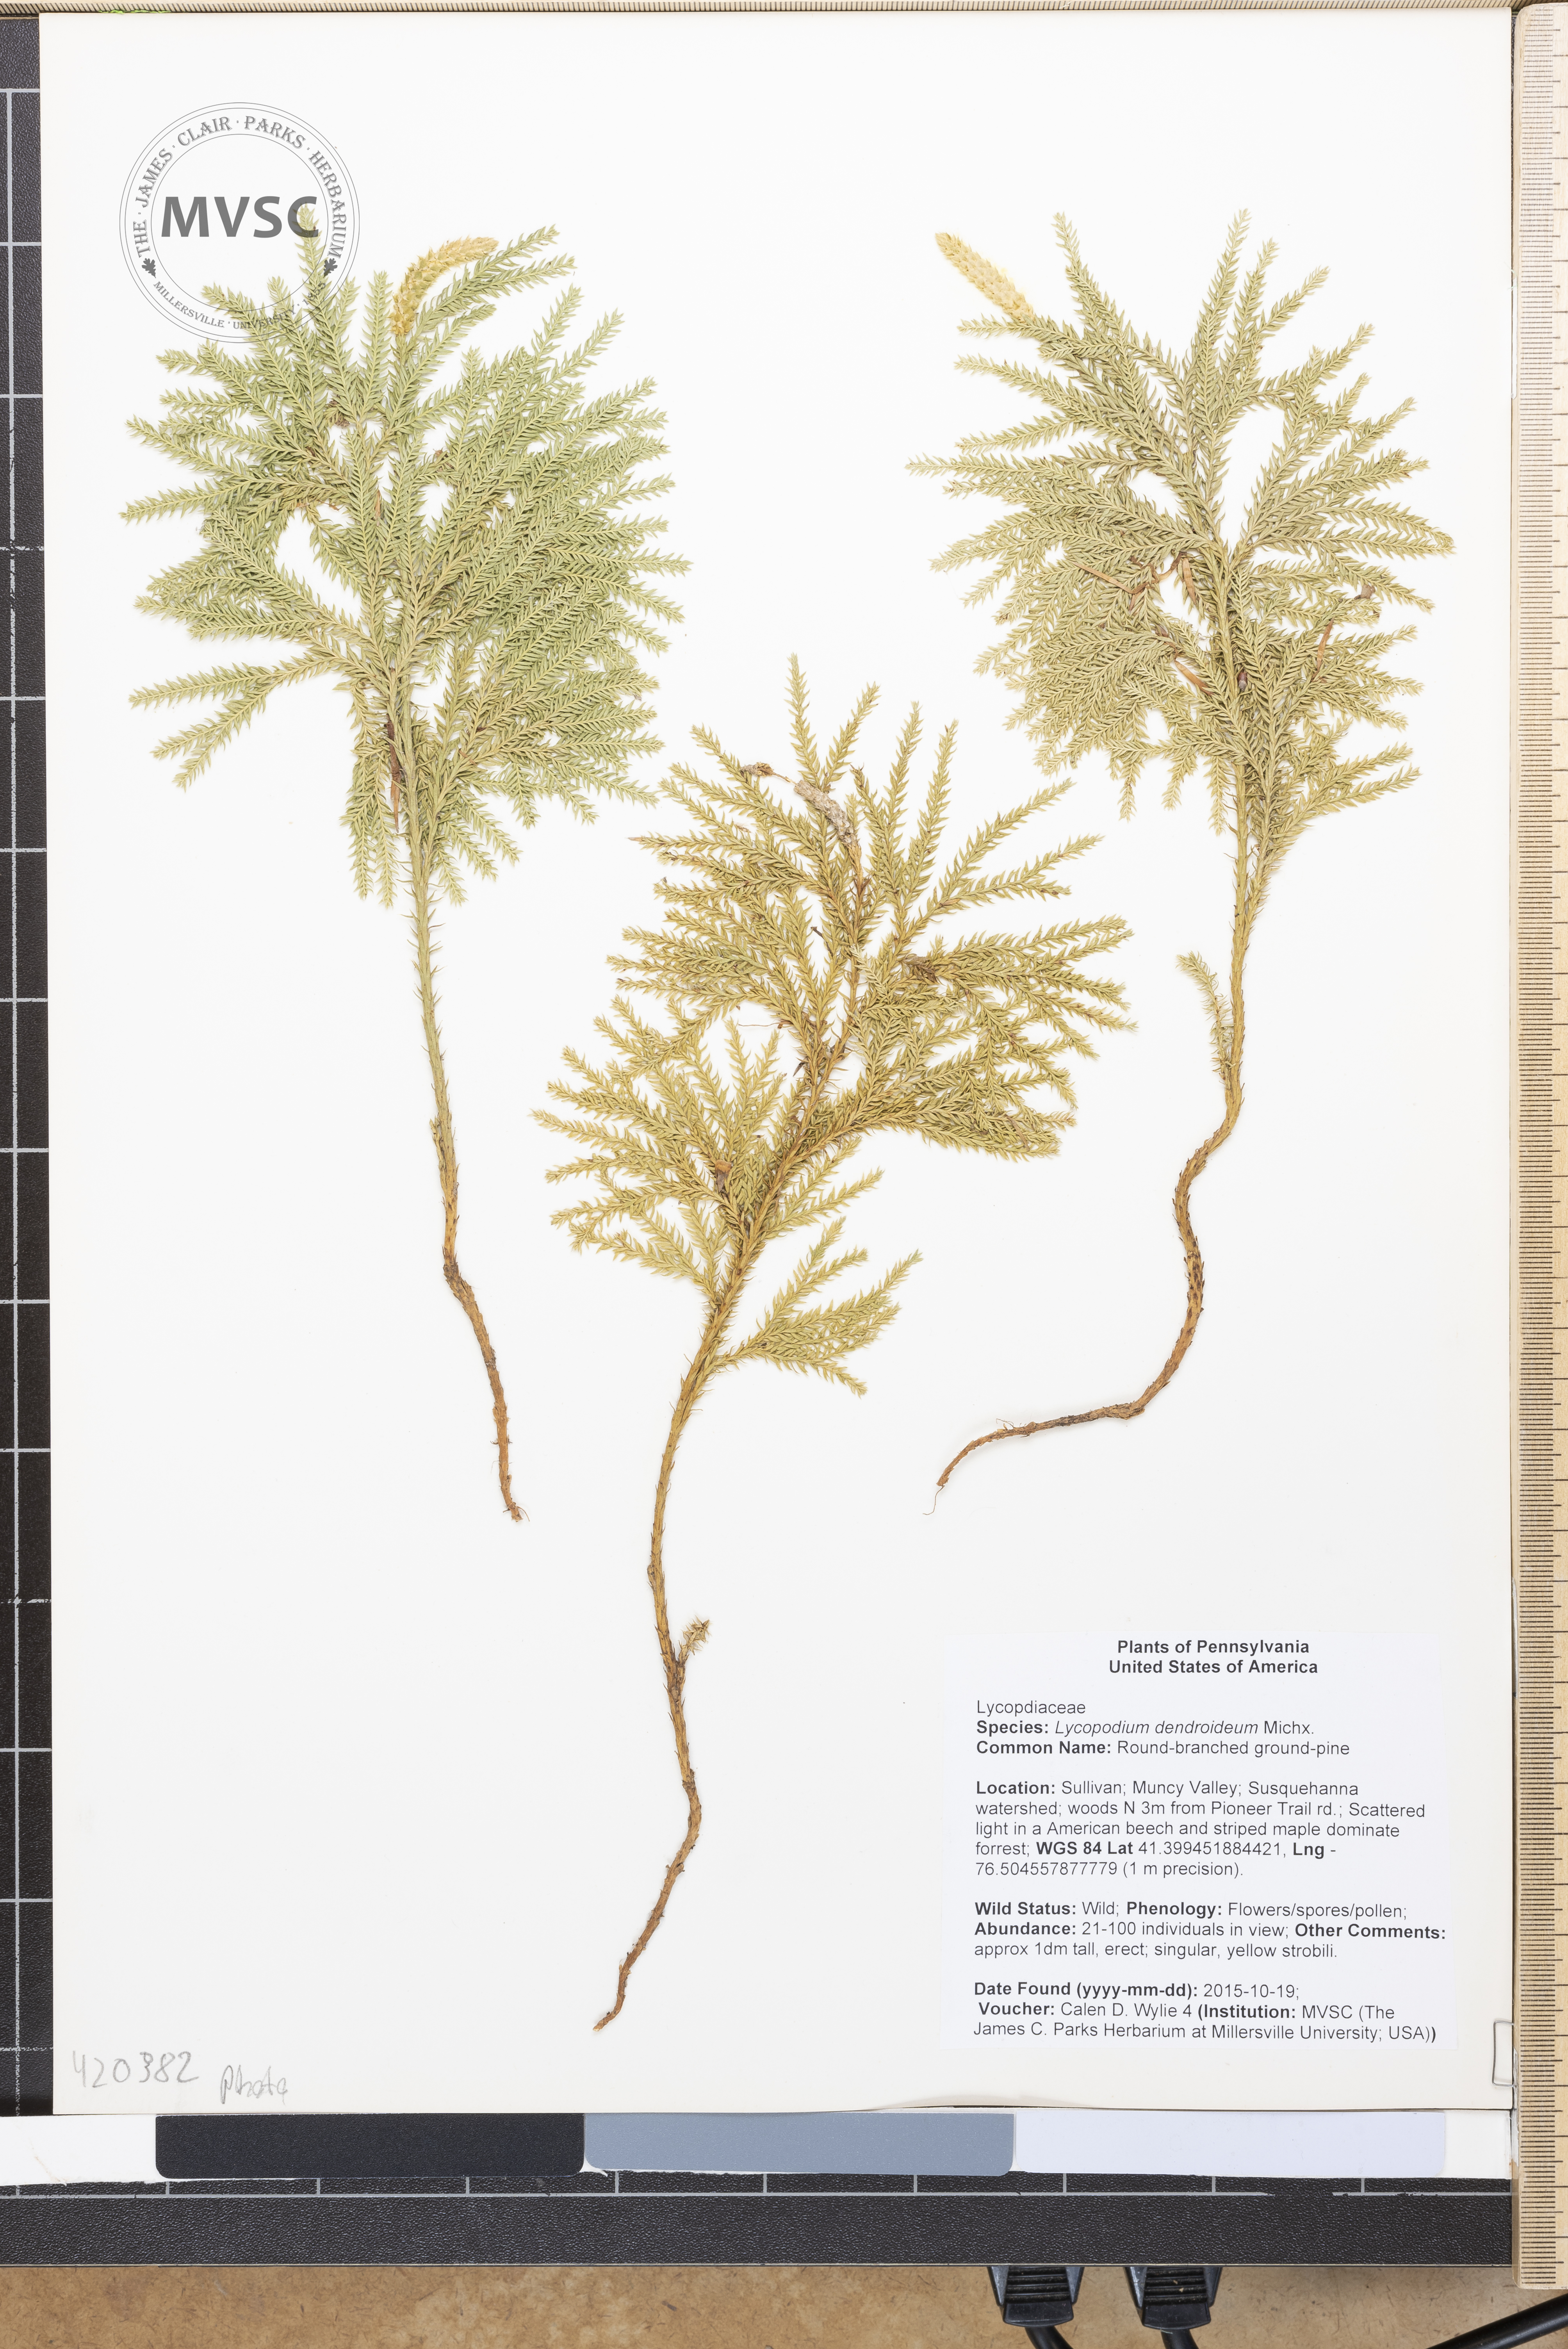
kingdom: Plantae
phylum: Tracheophyta
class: Lycopodiopsida
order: Lycopodiales
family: Lycopodiaceae
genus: Dendrolycopodium
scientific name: Dendrolycopodium dendroideum
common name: Round-branched ground-pine
